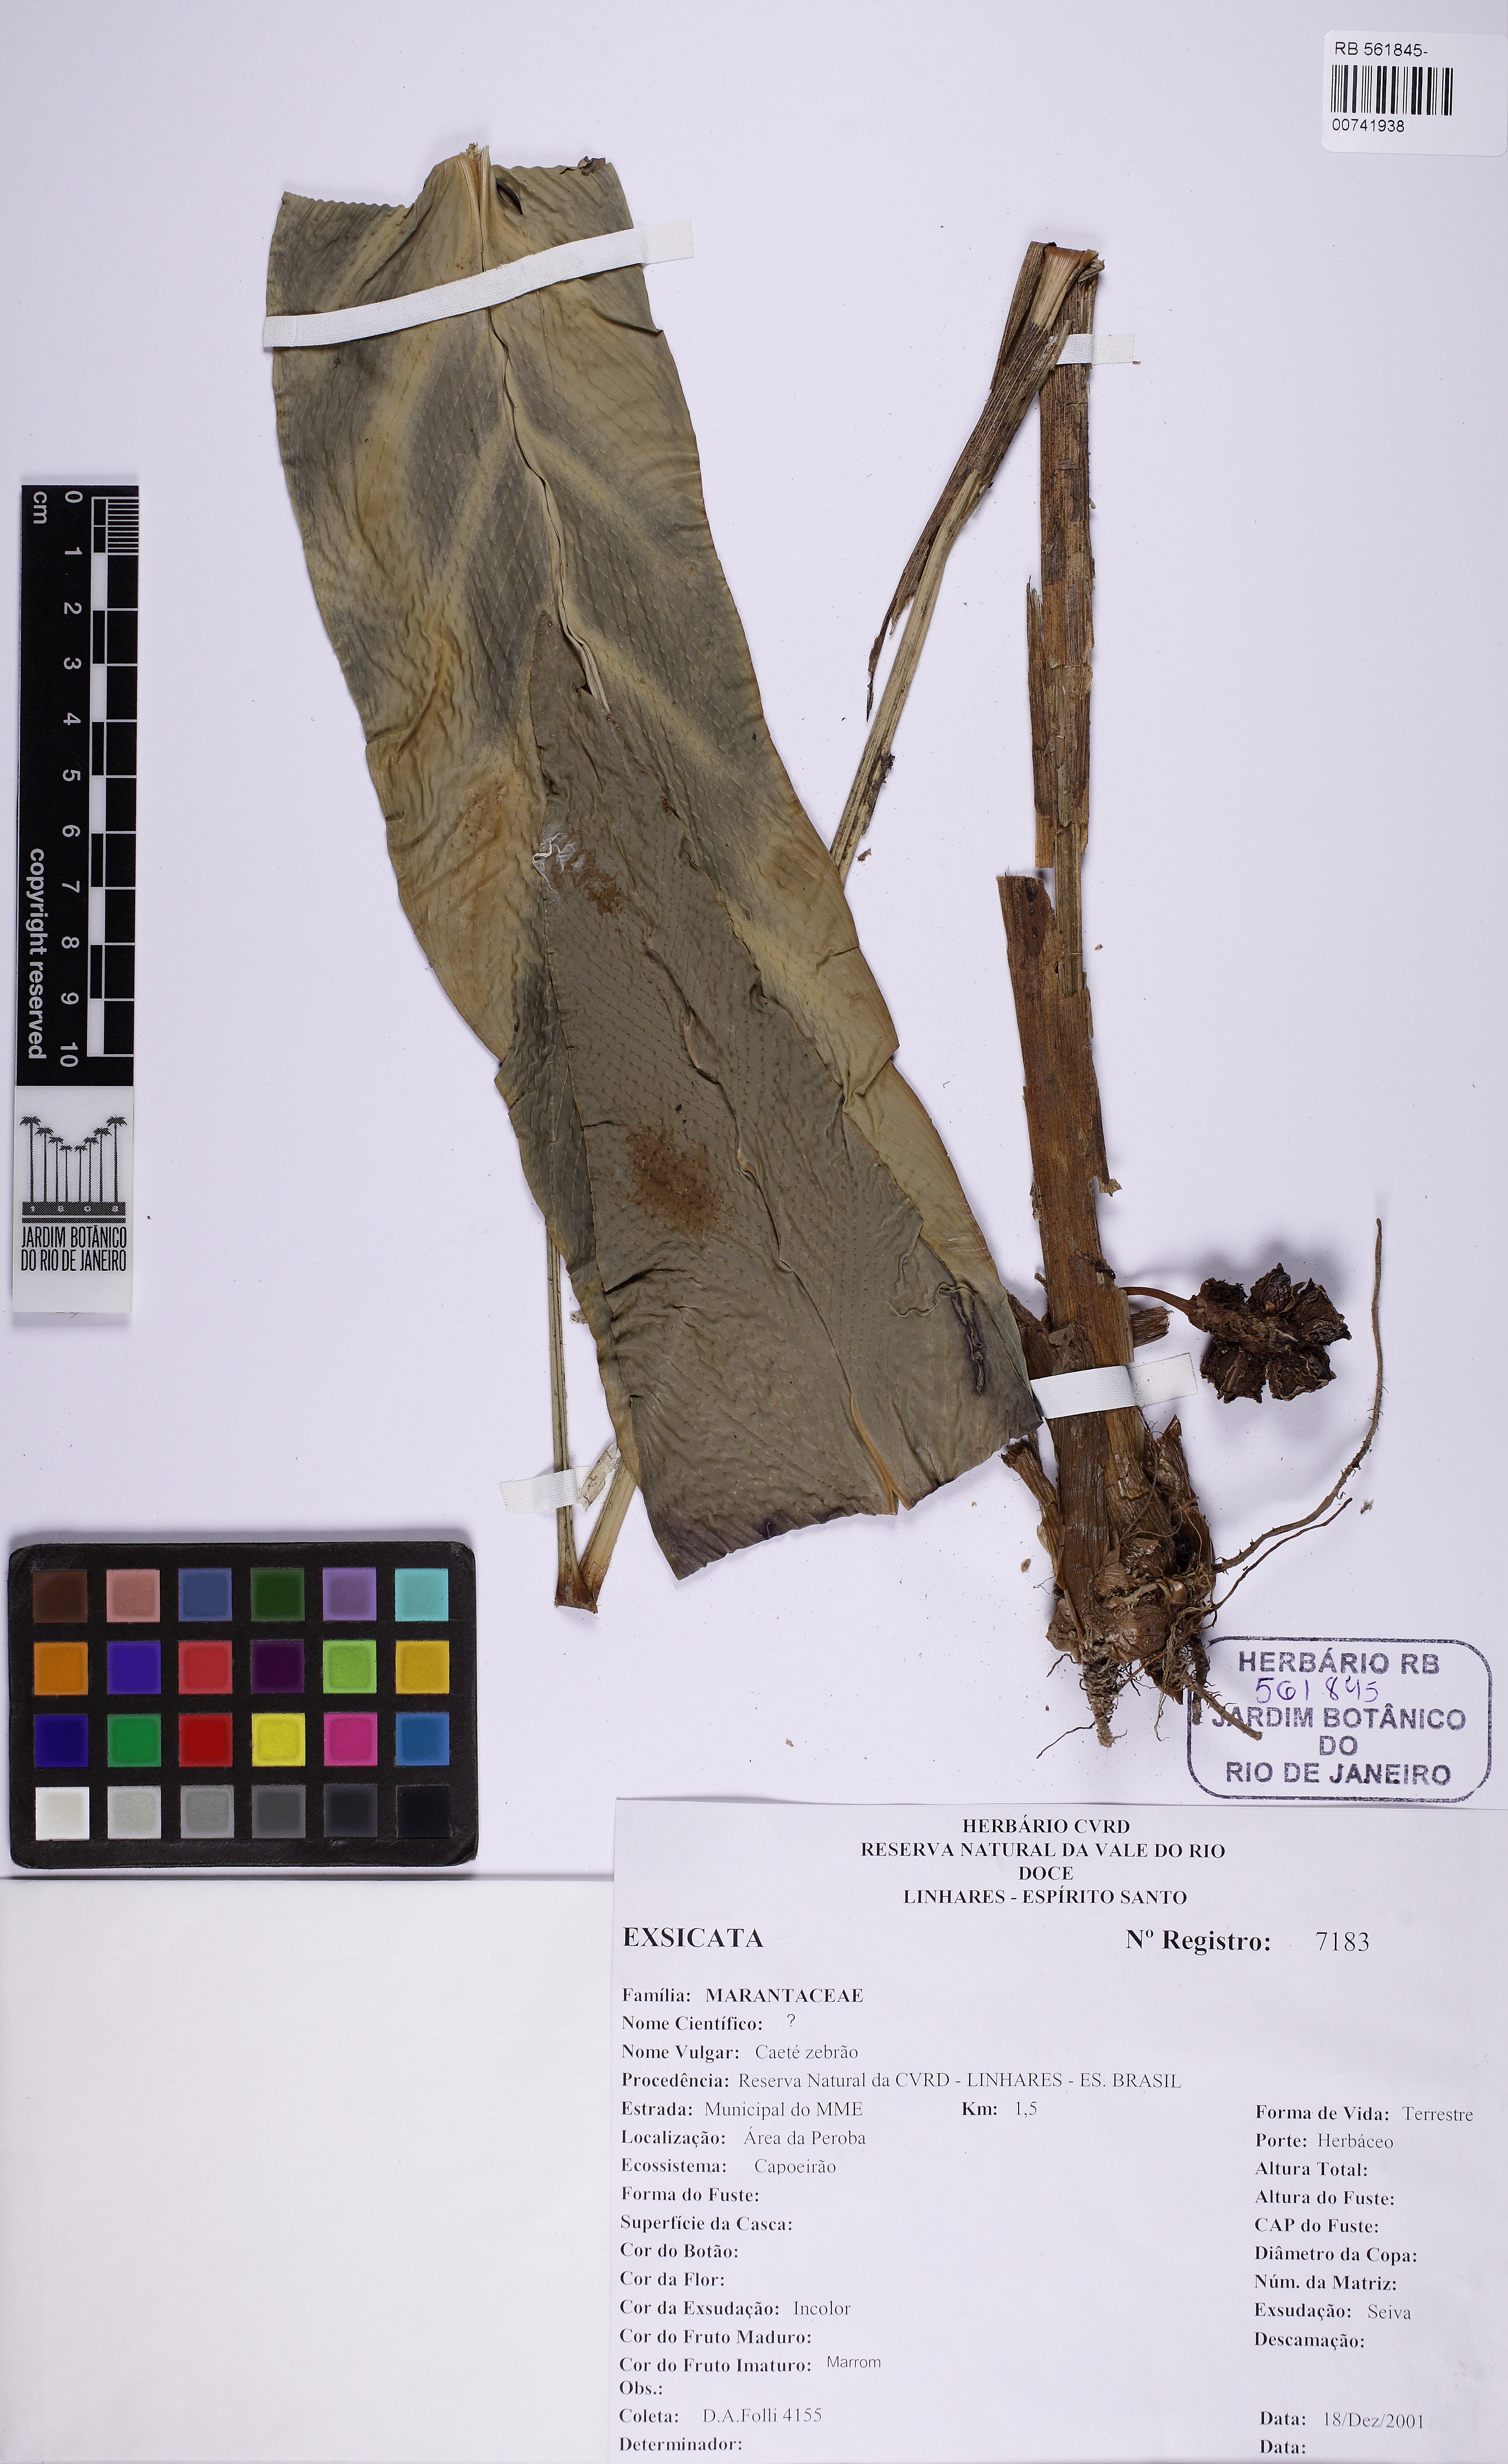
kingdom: Plantae
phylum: Tracheophyta
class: Liliopsida
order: Zingiberales
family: Marantaceae
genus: Goeppertia
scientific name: Goeppertia insignis
